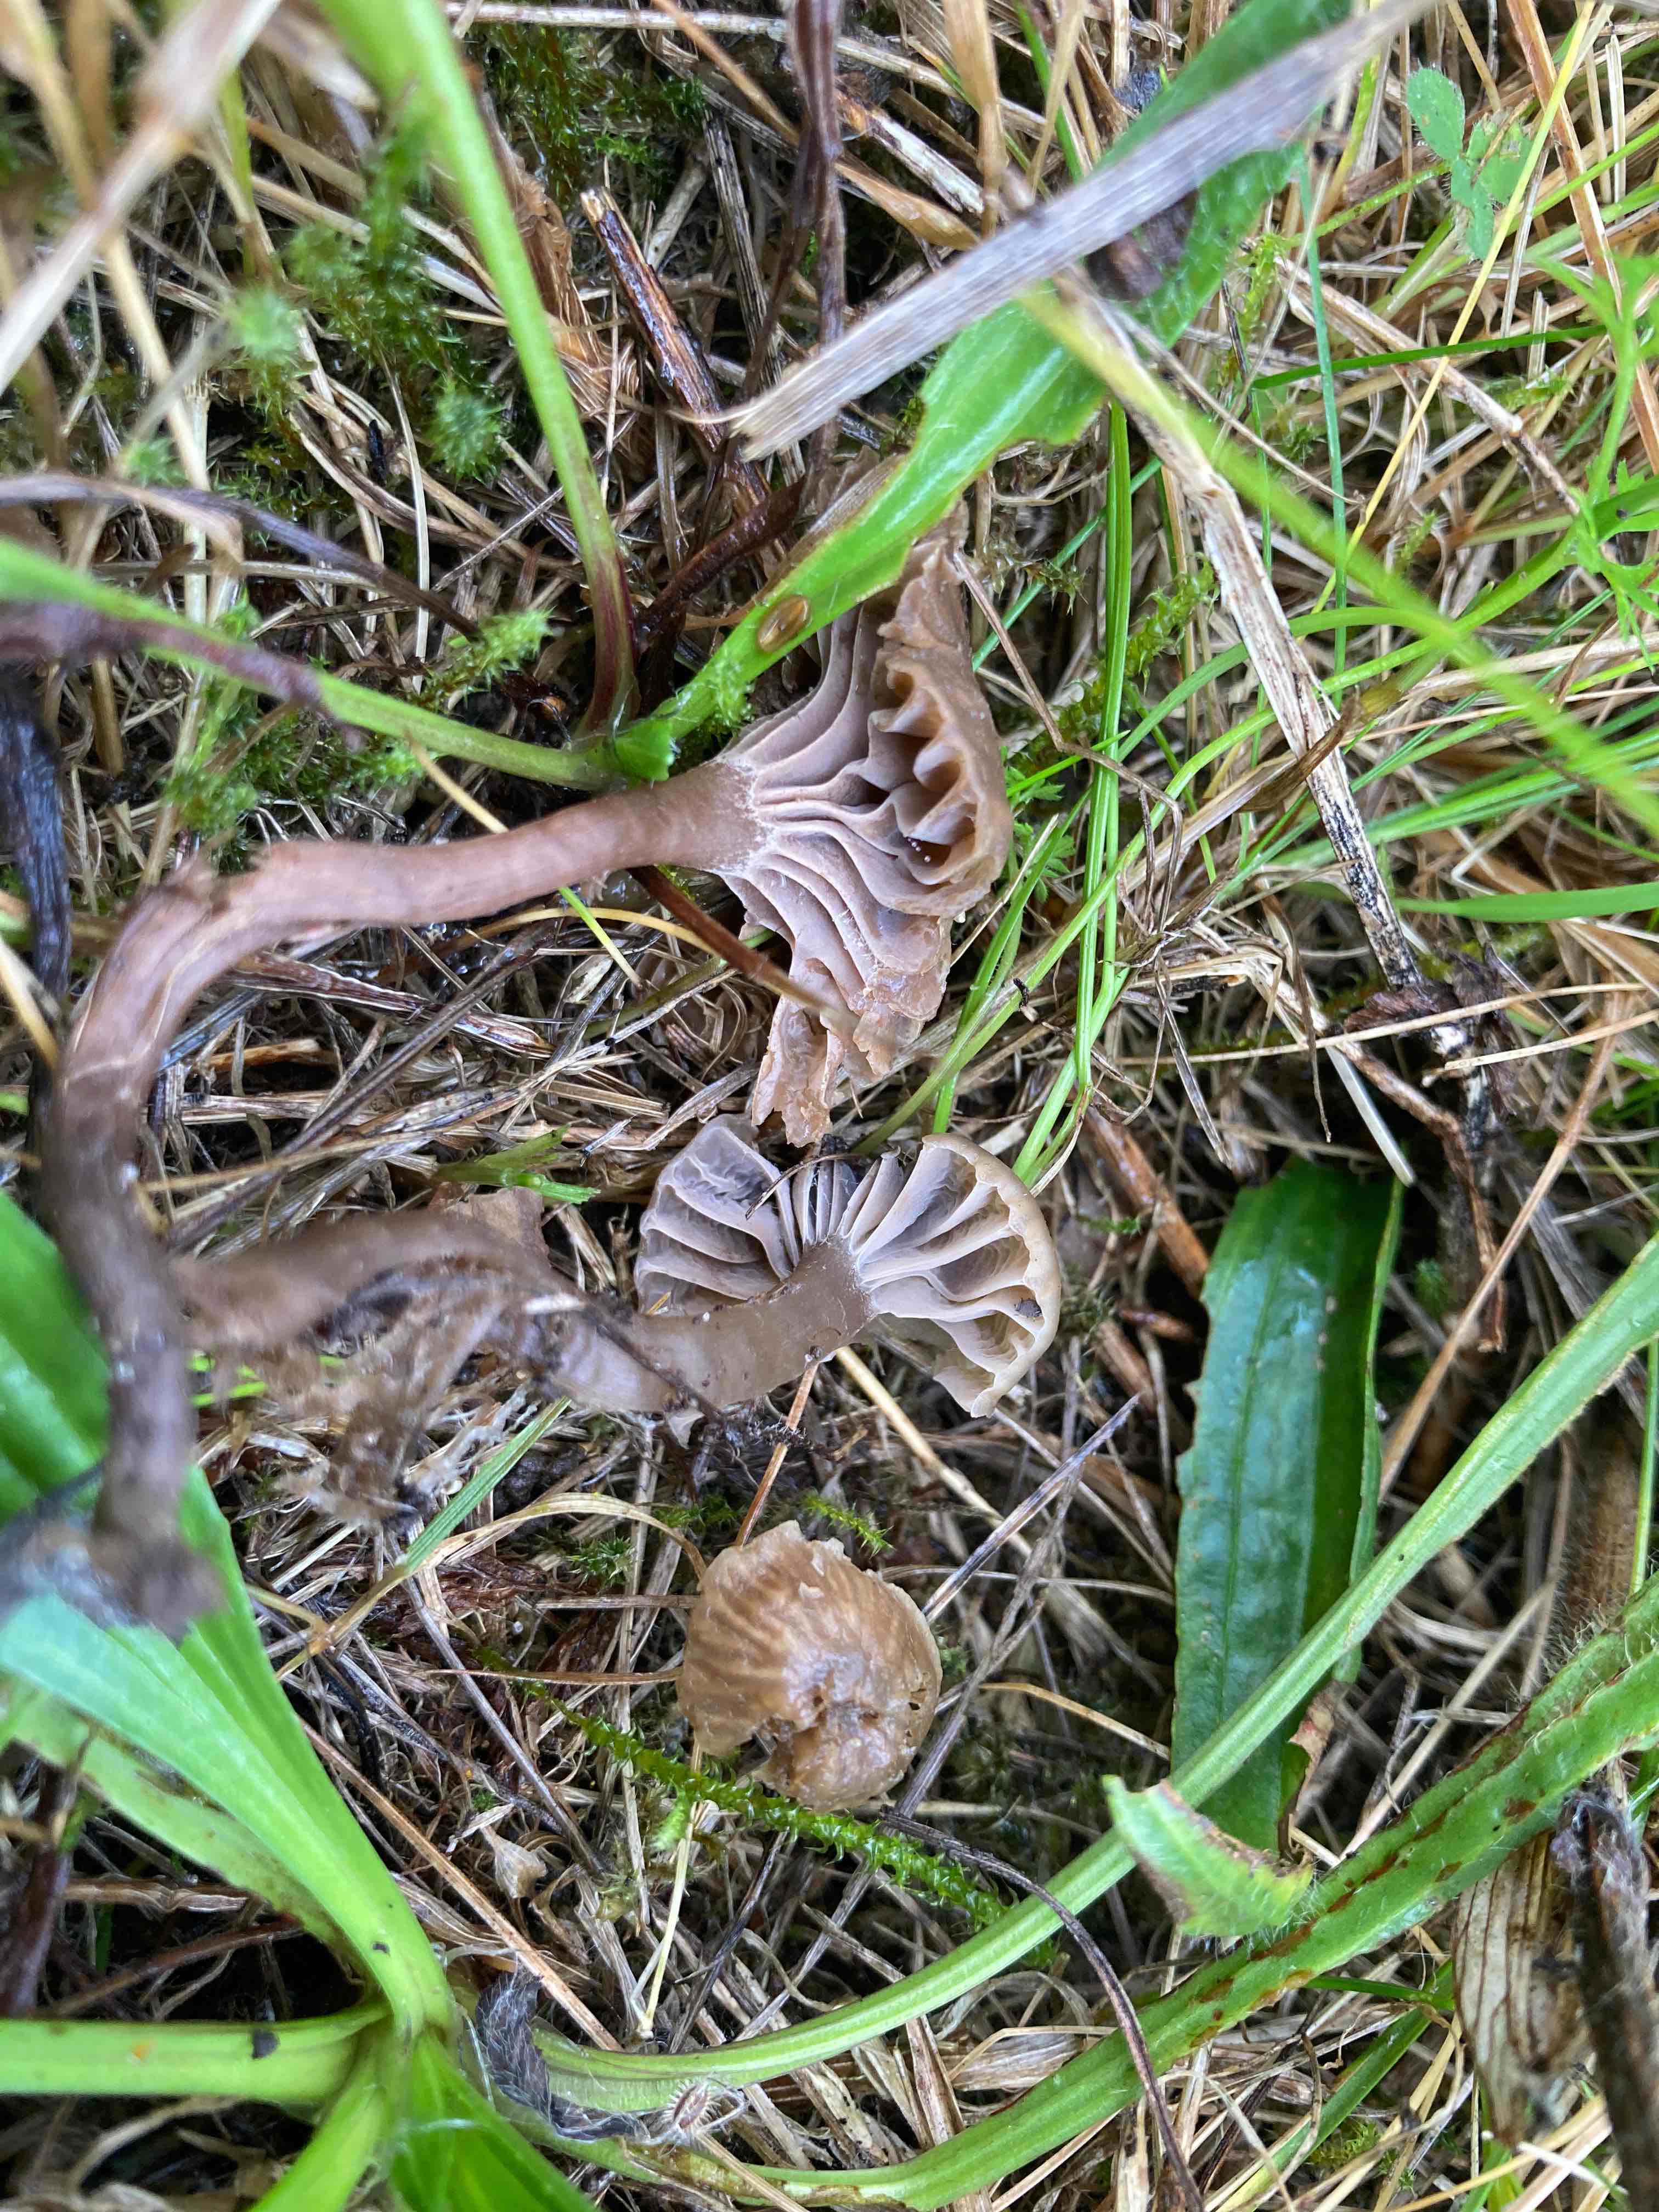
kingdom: Fungi
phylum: Basidiomycota
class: Agaricomycetes
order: Agaricales
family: Clavariaceae
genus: Hodophilus
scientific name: Hodophilus foetens
